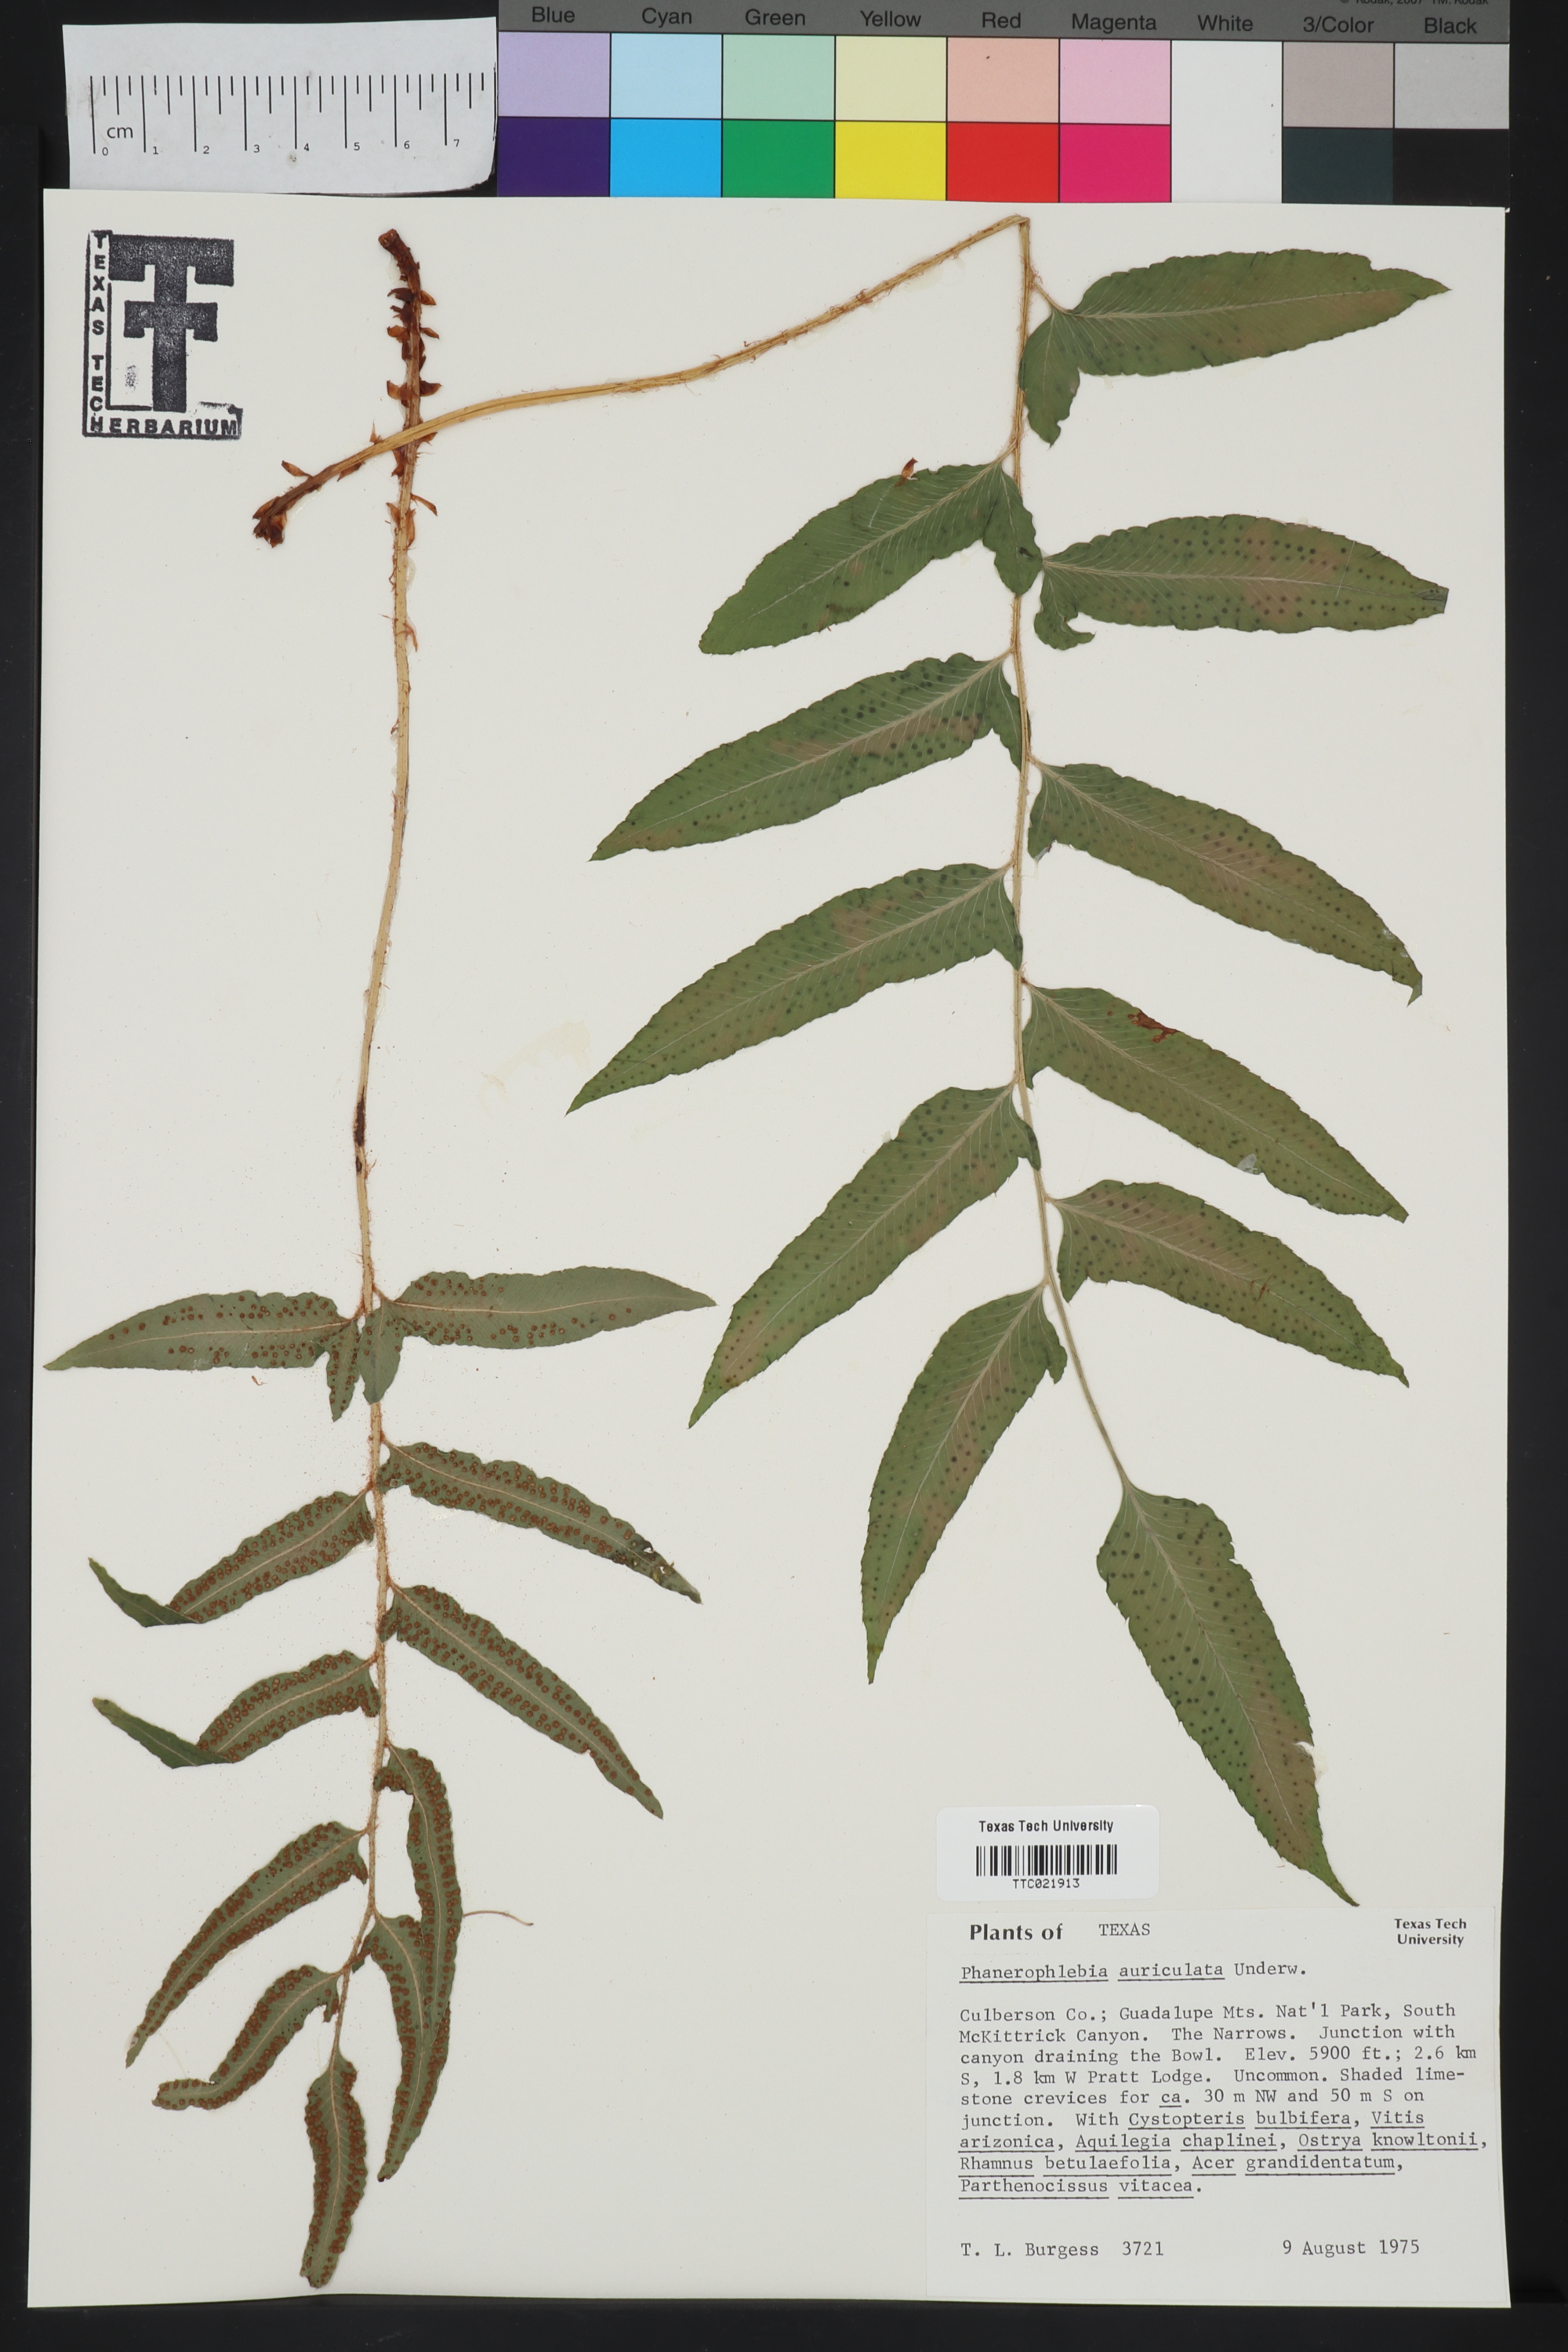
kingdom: Plantae
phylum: Tracheophyta
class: Polypodiopsida
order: Polypodiales
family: Dryopteridaceae
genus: Phanerophlebia
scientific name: Phanerophlebia auriculata
